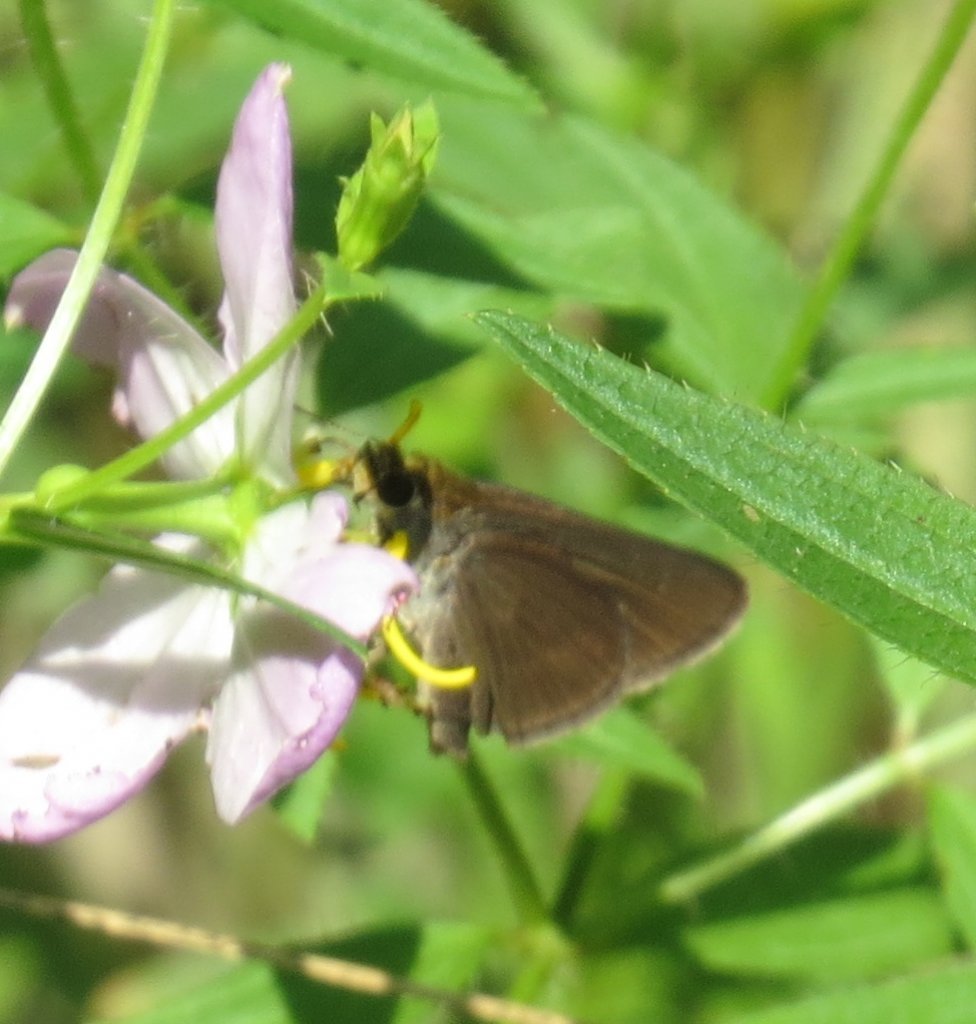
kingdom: Animalia
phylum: Arthropoda
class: Insecta
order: Lepidoptera
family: Hesperiidae
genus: Euphyes
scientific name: Euphyes vestris
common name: Dun Skipper
